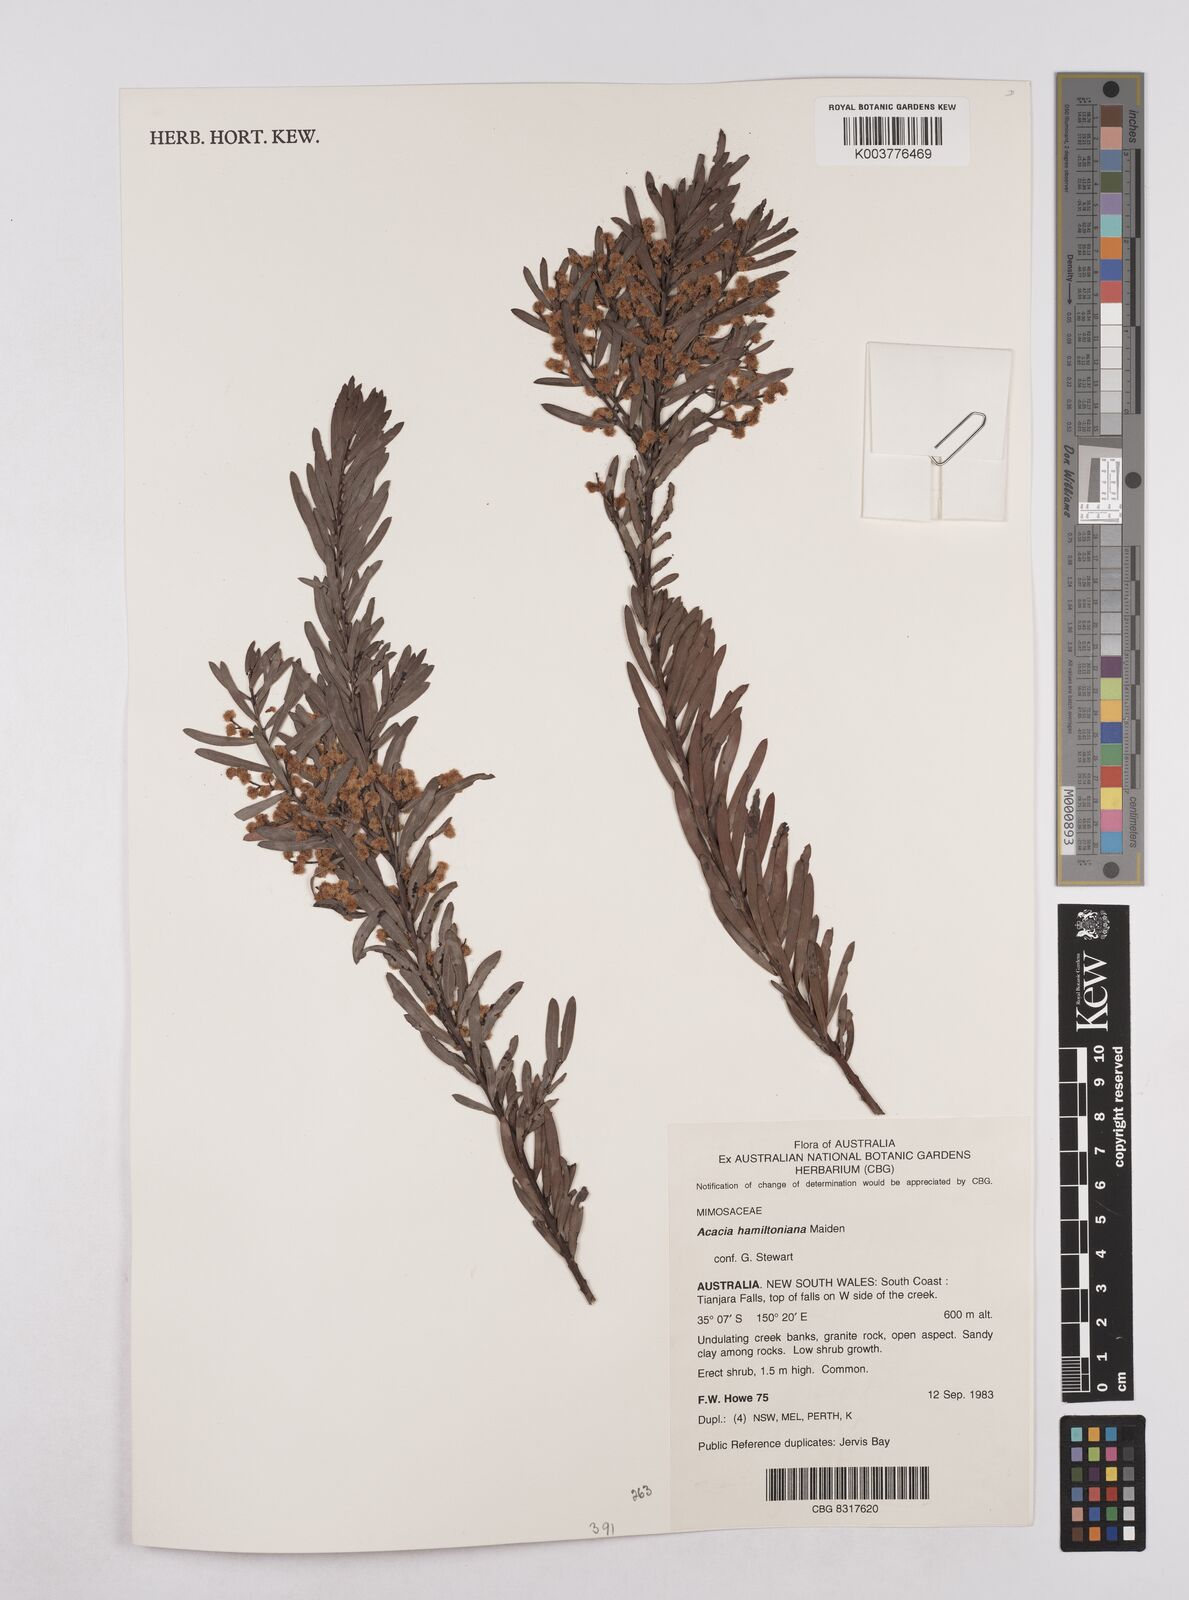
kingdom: Plantae
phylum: Tracheophyta
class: Magnoliopsida
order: Fabales
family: Fabaceae
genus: Acacia
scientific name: Acacia hamiltoniana
